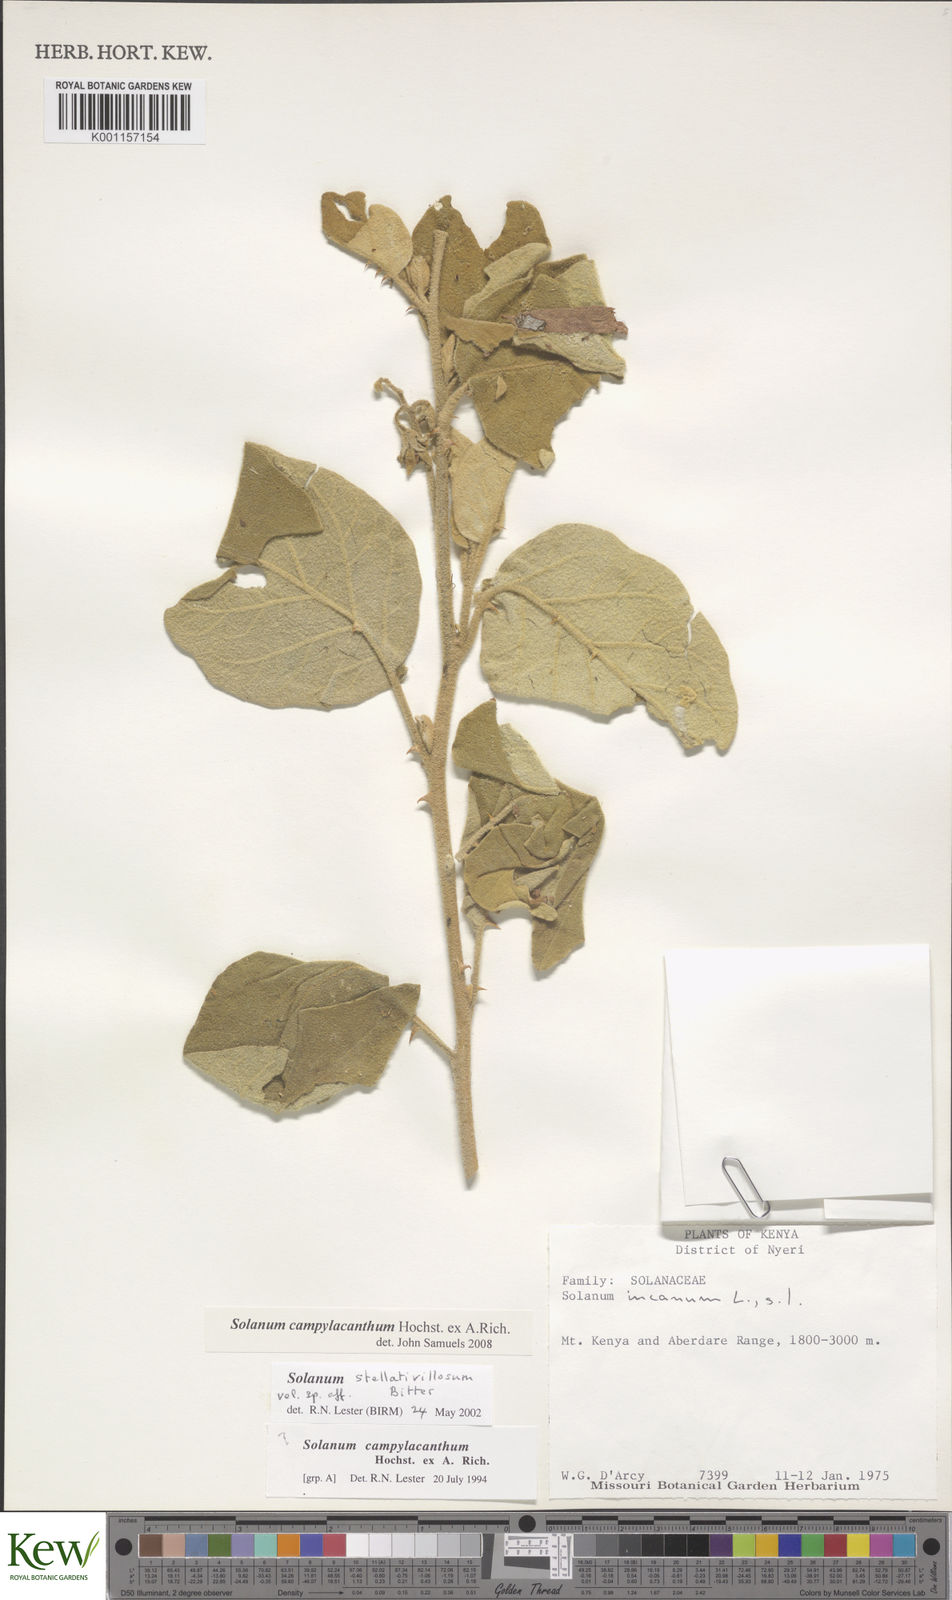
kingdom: Plantae
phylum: Tracheophyta
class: Magnoliopsida
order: Solanales
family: Solanaceae
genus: Solanum
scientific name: Solanum campylacanthum
